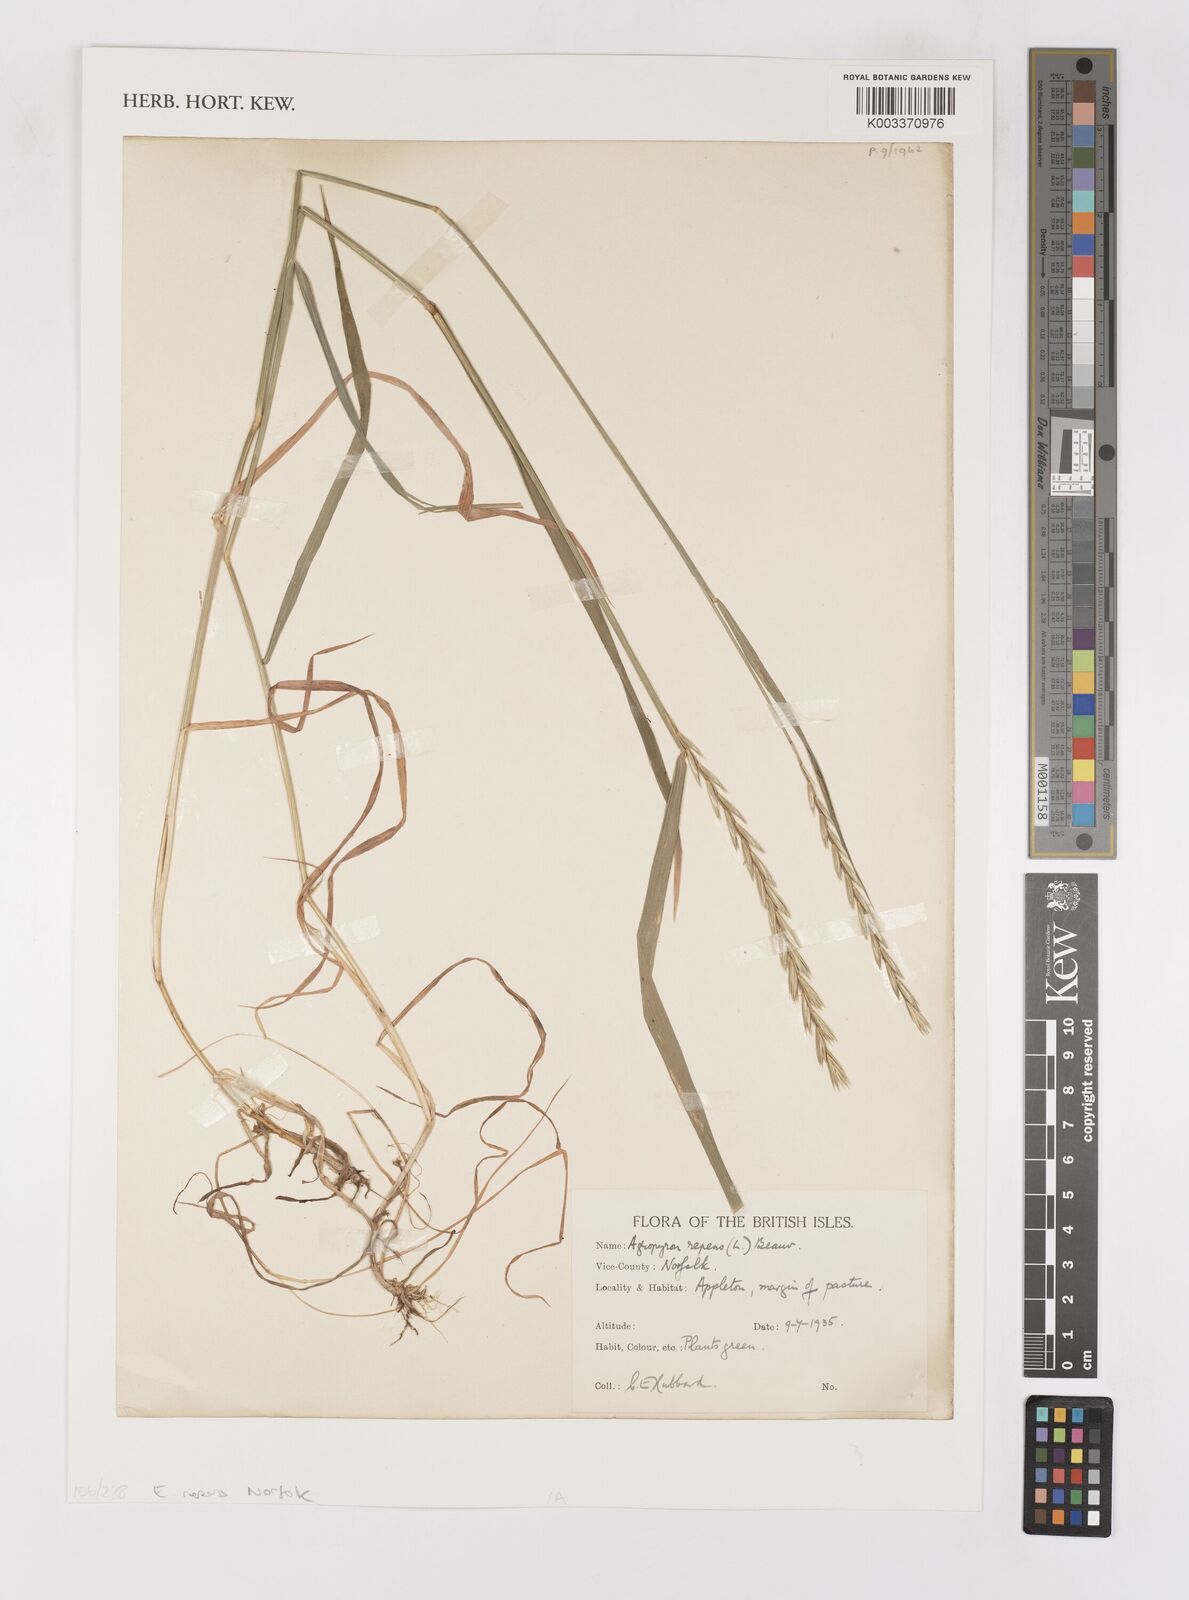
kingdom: Plantae
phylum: Tracheophyta
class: Liliopsida
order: Poales
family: Poaceae
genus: Elymus
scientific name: Elymus repens
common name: Quackgrass
